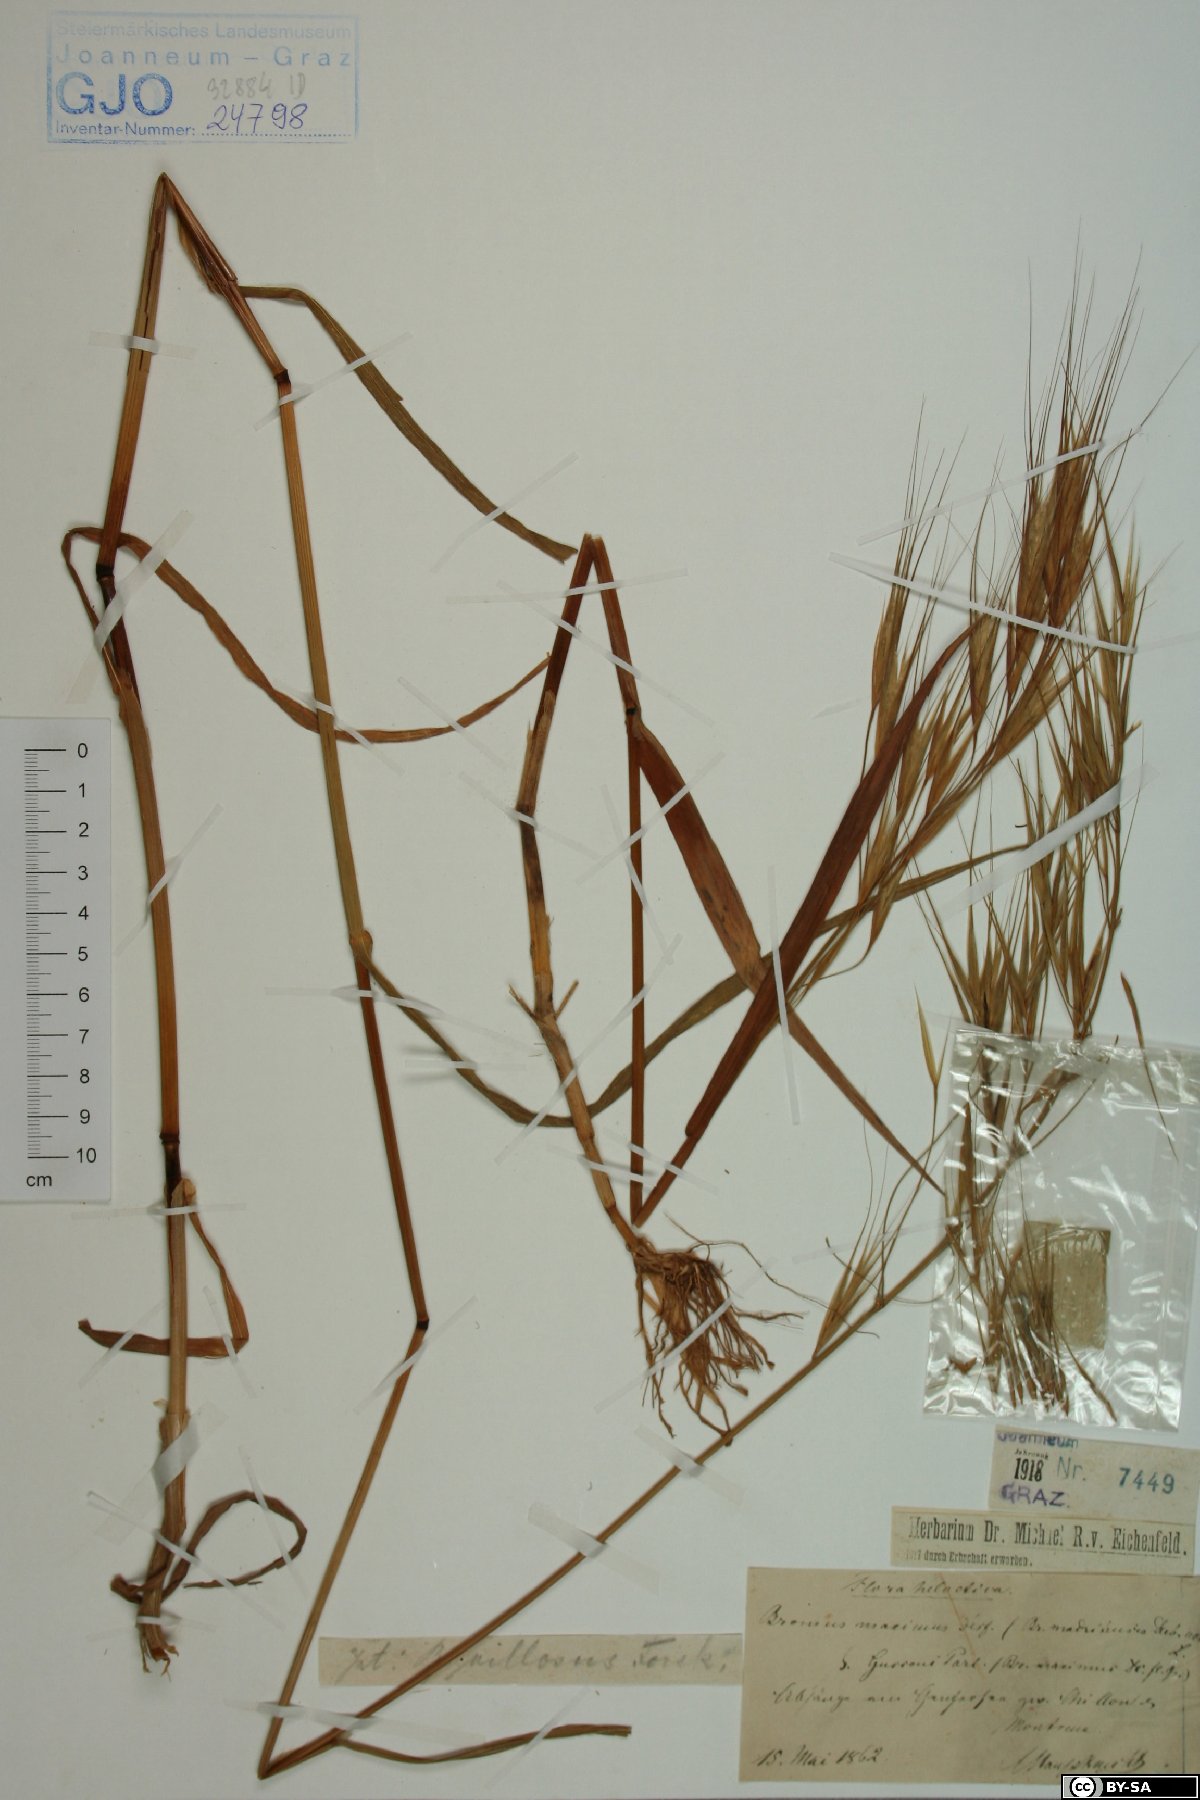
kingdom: Plantae
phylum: Tracheophyta
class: Liliopsida
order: Poales
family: Poaceae
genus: Bromus
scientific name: Bromus diandrus
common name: Ripgut brome
